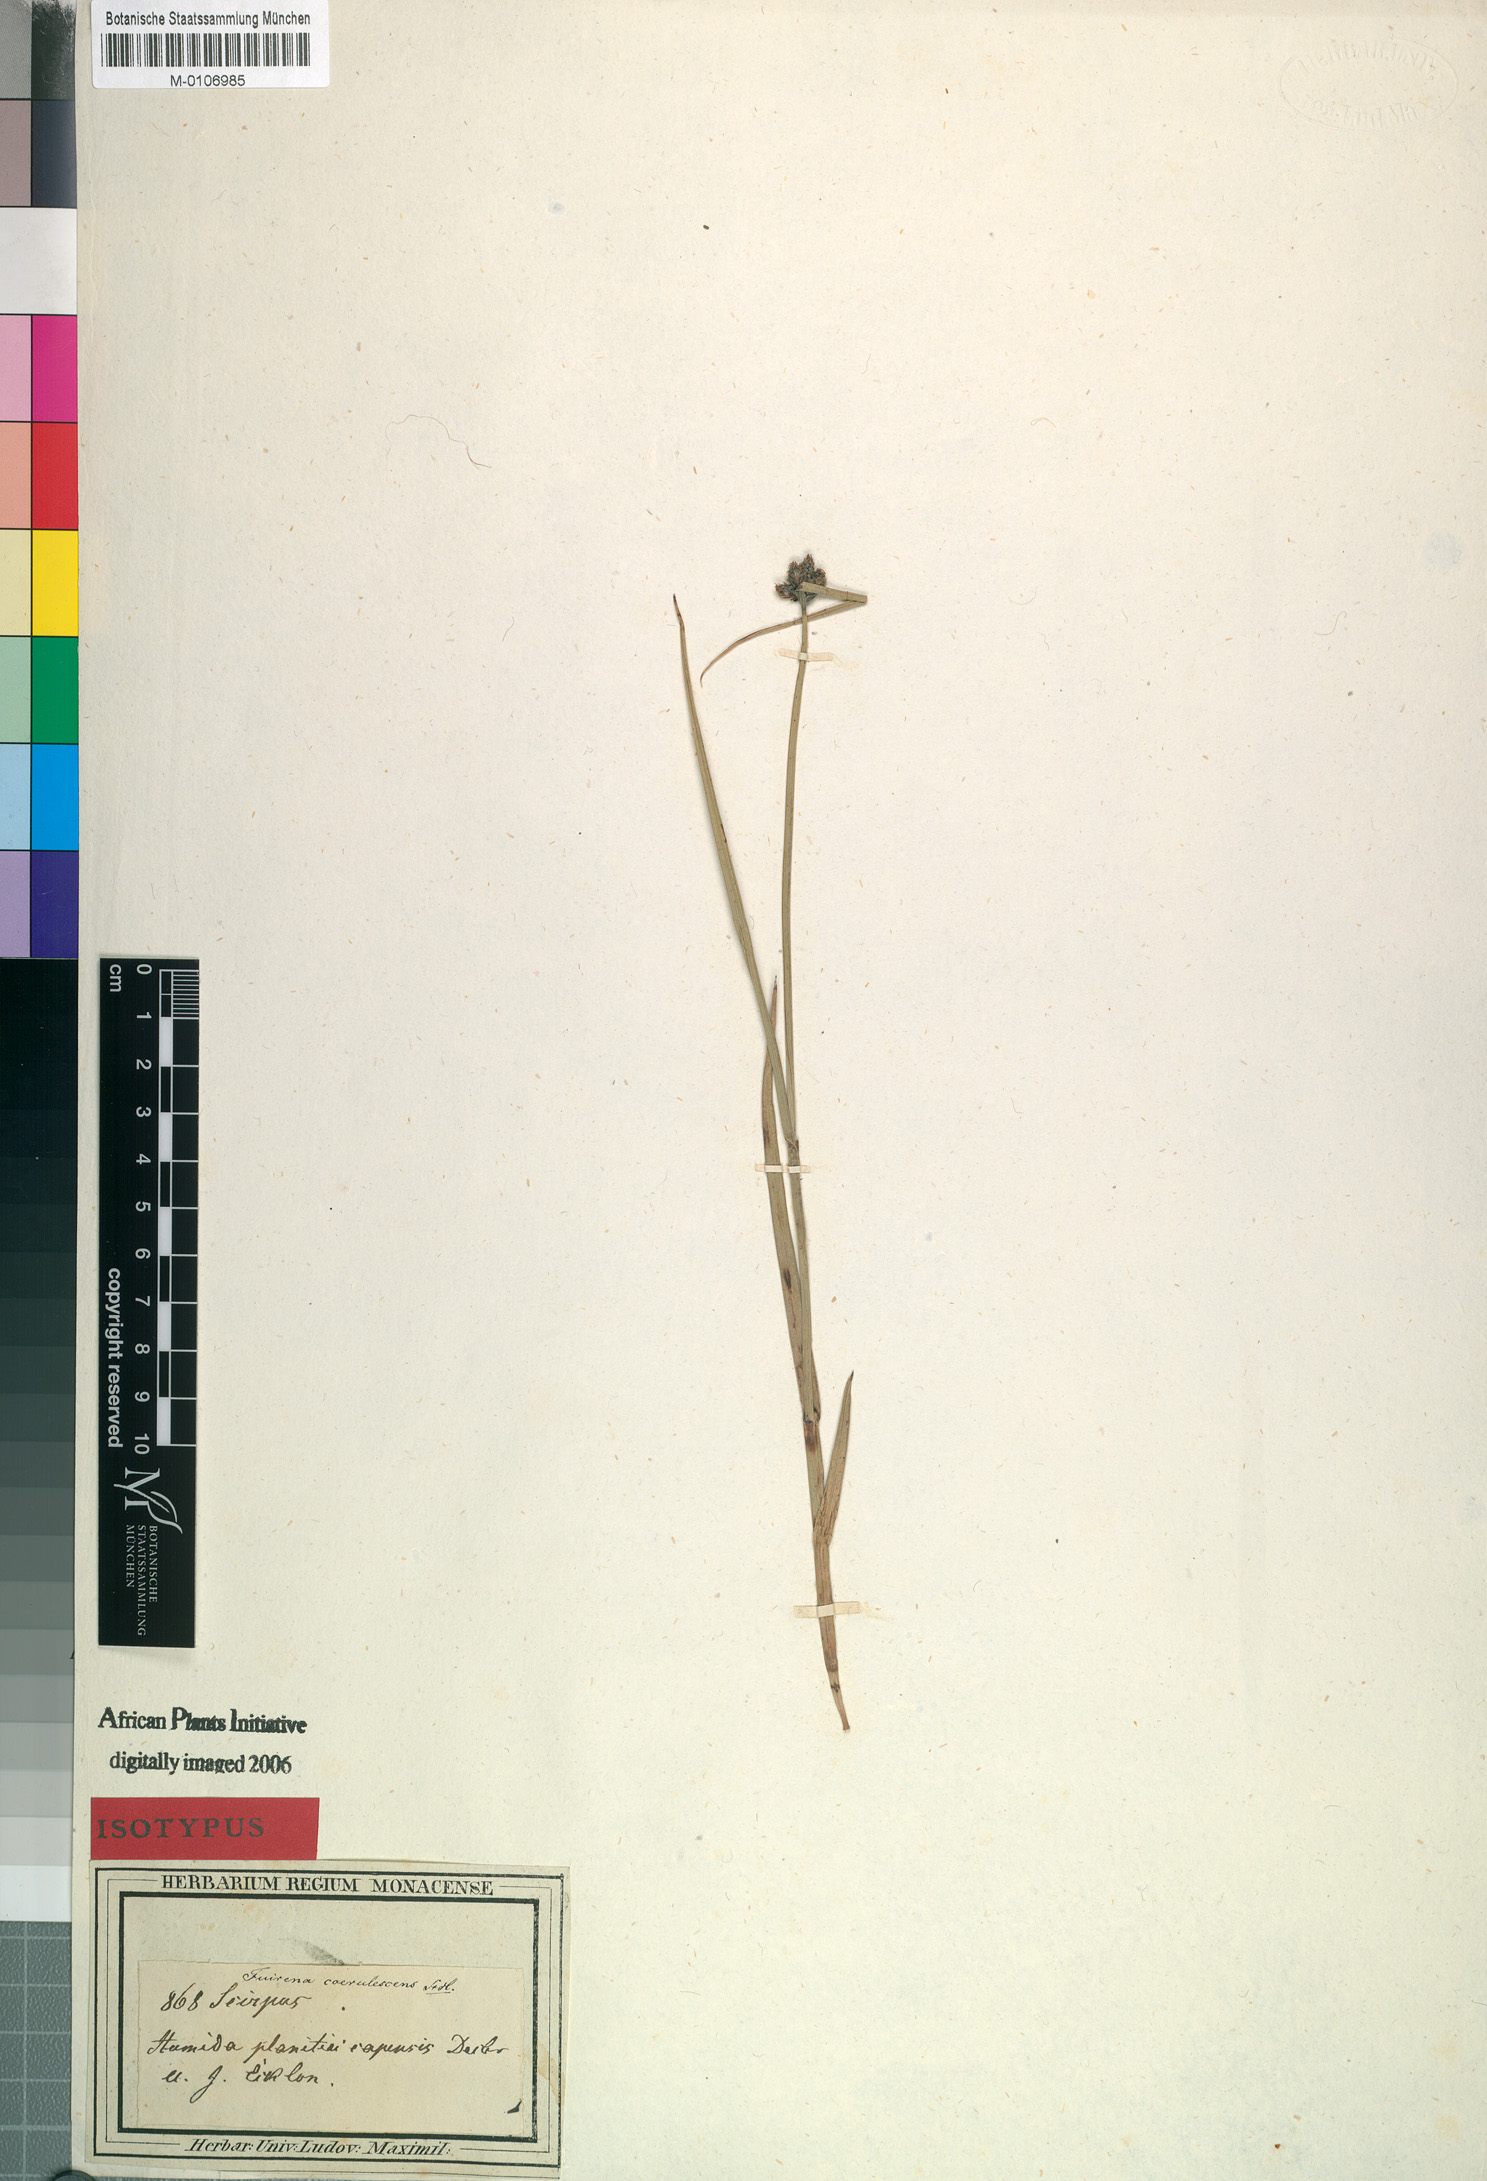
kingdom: Plantae
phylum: Tracheophyta
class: Liliopsida
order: Poales
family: Cyperaceae
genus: Fuirena
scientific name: Fuirena coerulescens
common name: Blue umbrella-sedge
